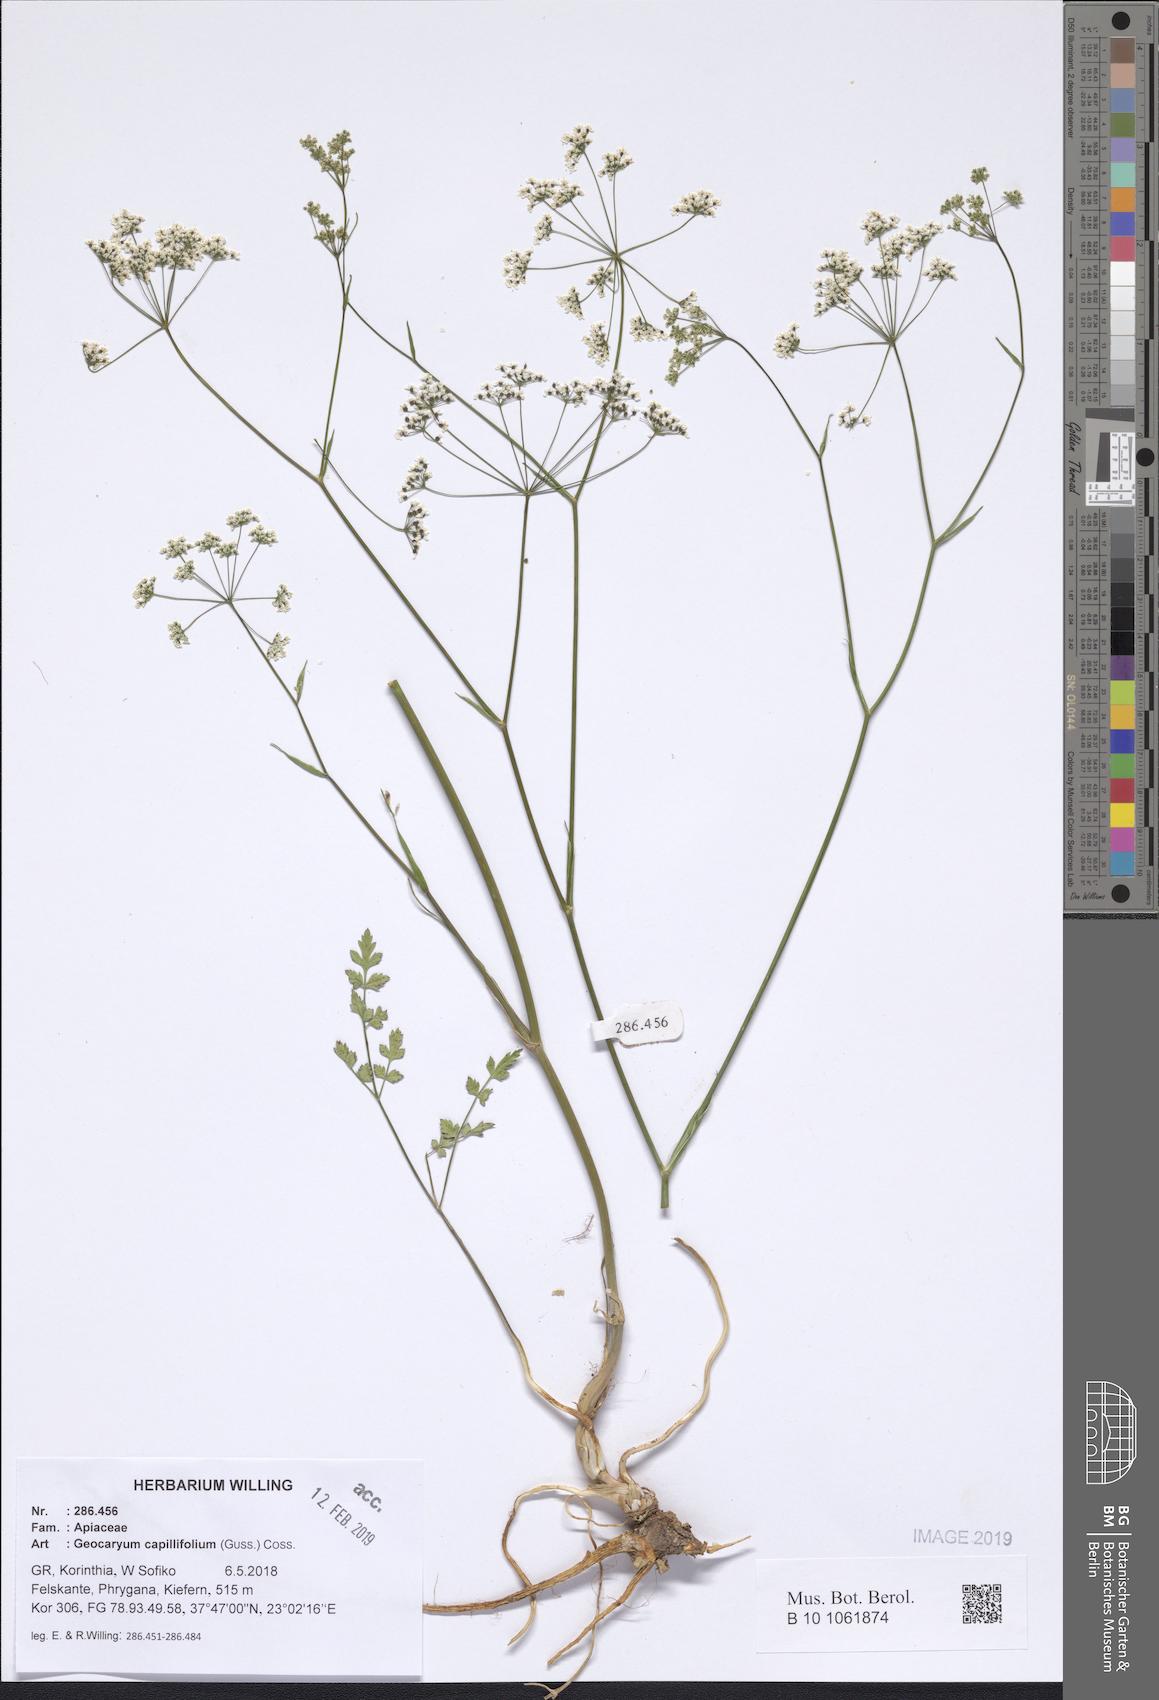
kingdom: Plantae
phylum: Tracheophyta
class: Magnoliopsida
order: Apiales
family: Apiaceae
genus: Geocaryum
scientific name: Geocaryum capillifolium
